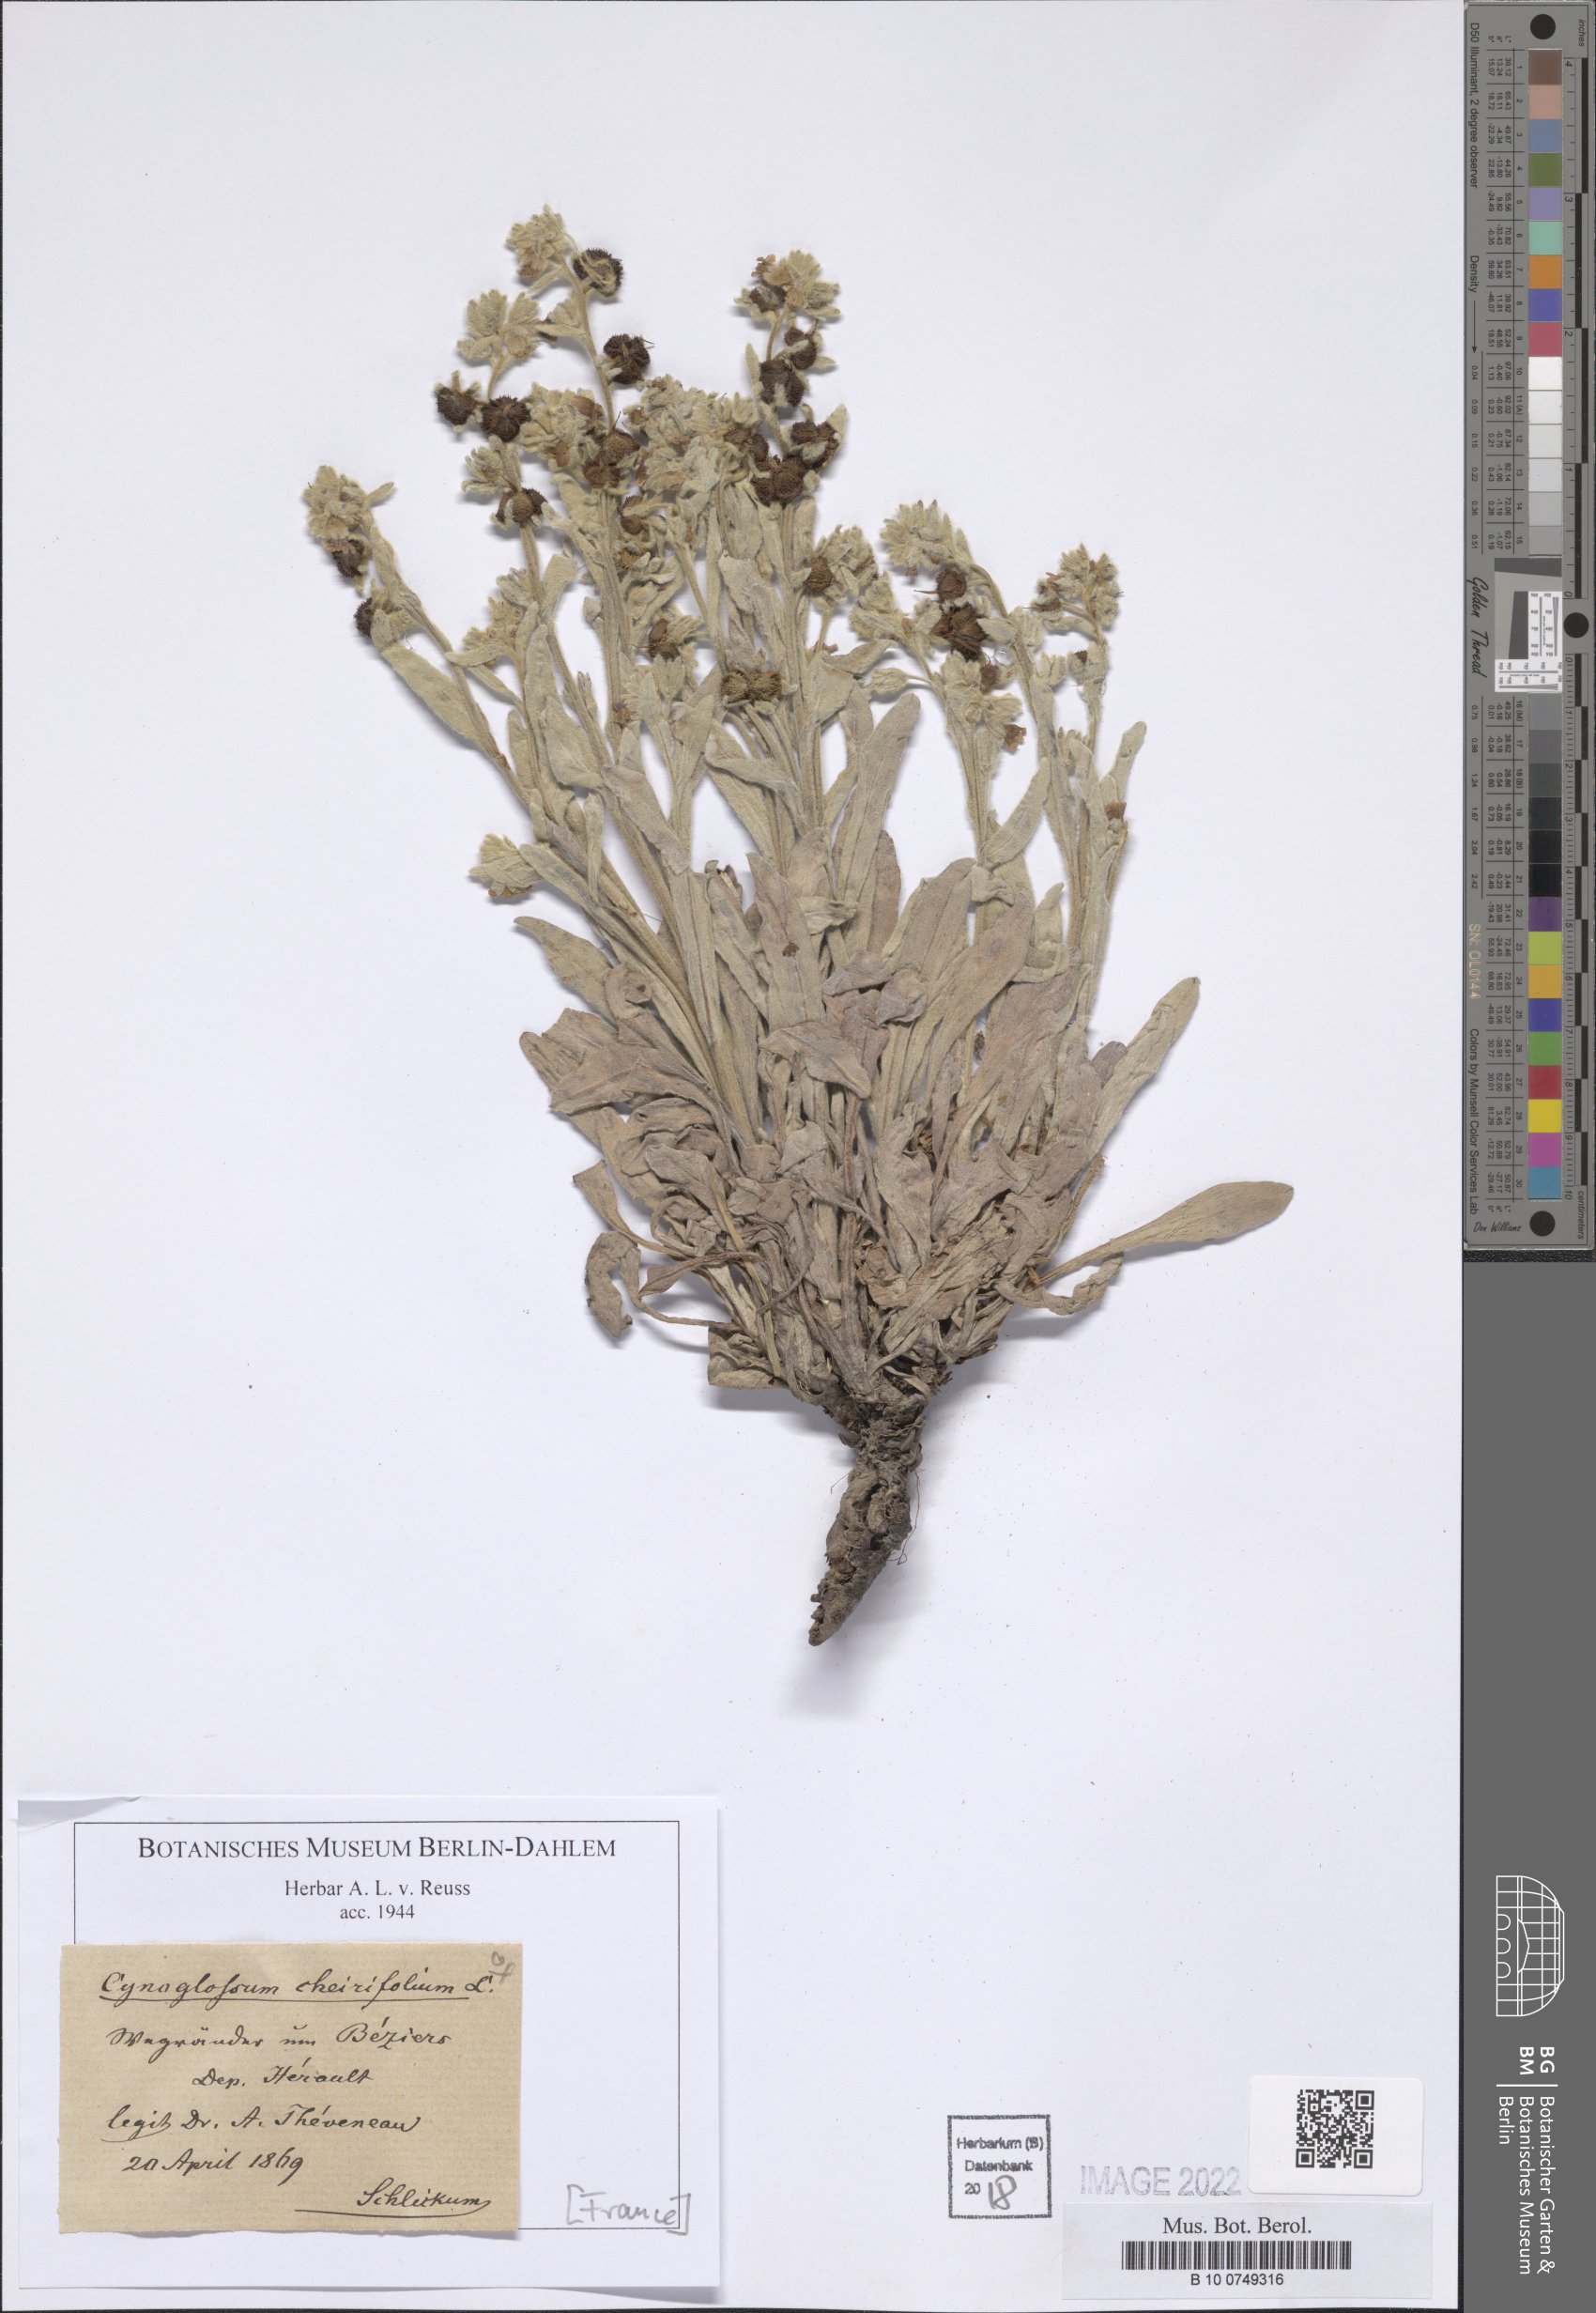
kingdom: Plantae
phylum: Tracheophyta
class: Magnoliopsida
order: Boraginales
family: Boraginaceae
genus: Pardoglossum
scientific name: Pardoglossum cheirifolium
